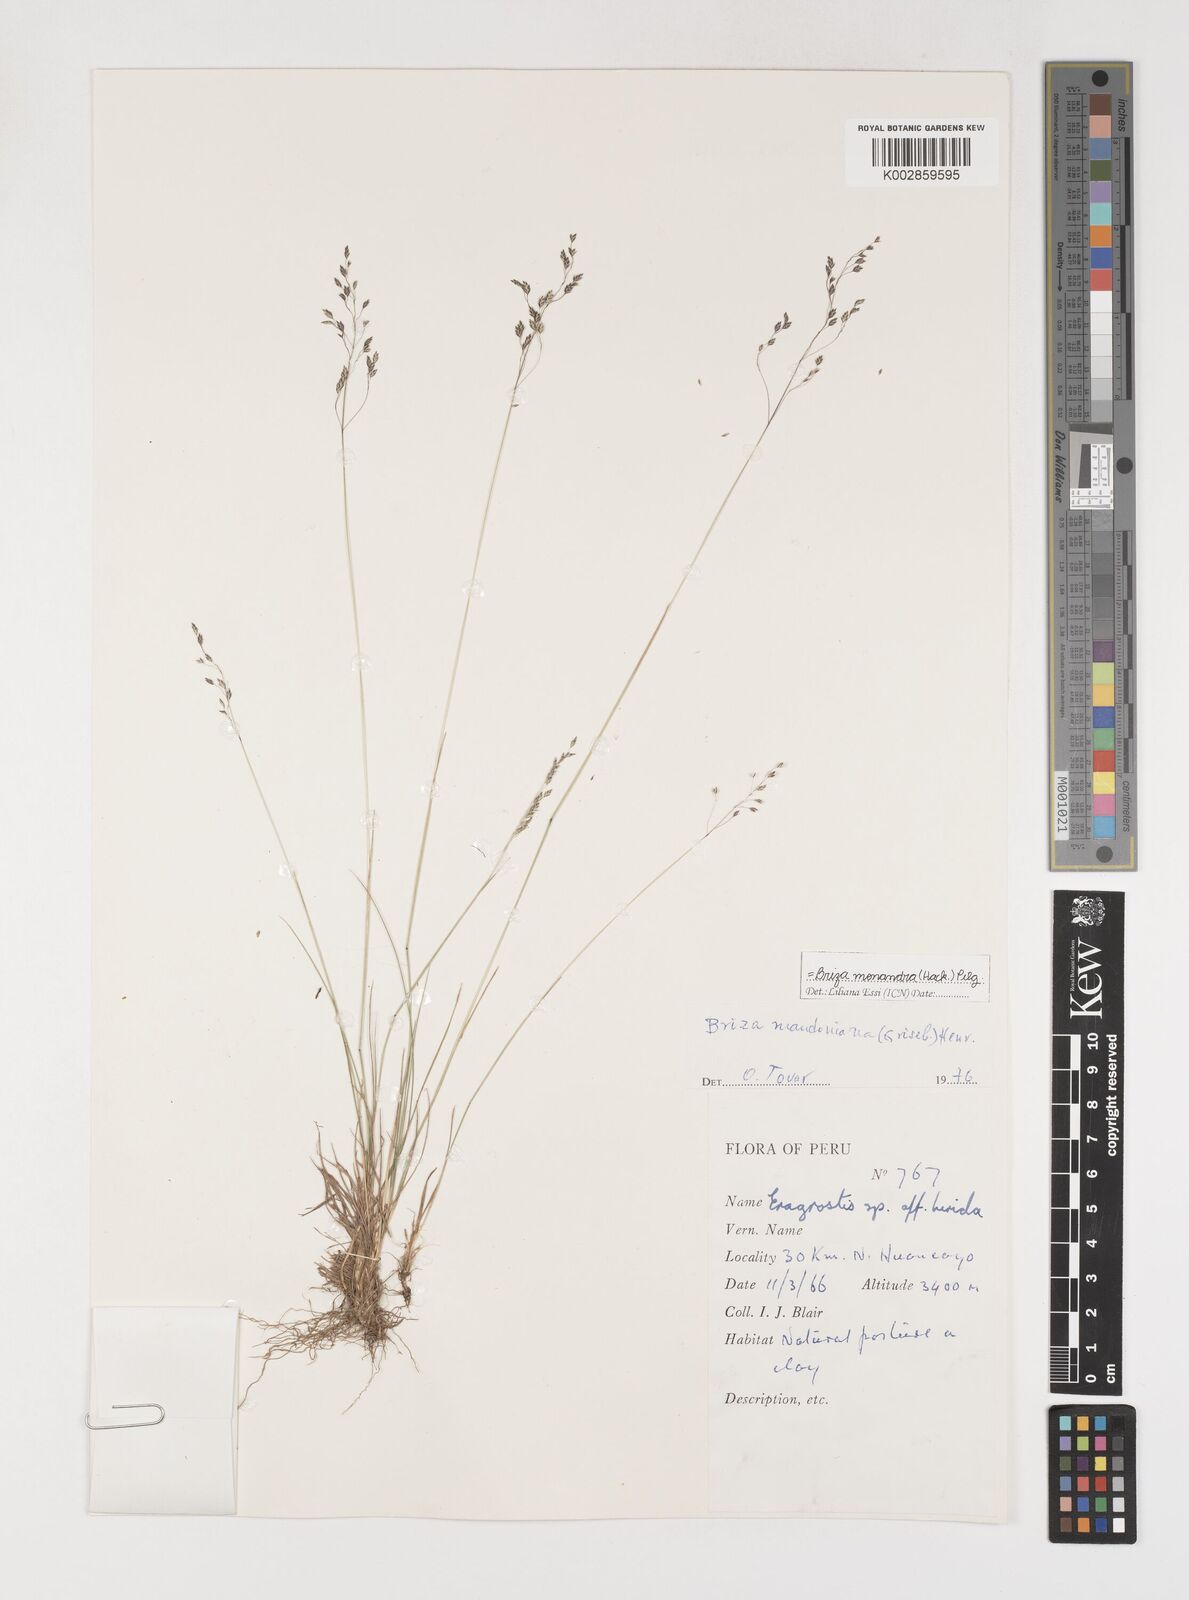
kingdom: Plantae
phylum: Tracheophyta
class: Liliopsida
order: Poales
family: Poaceae
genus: Poidium
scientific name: Poidium monandrum
